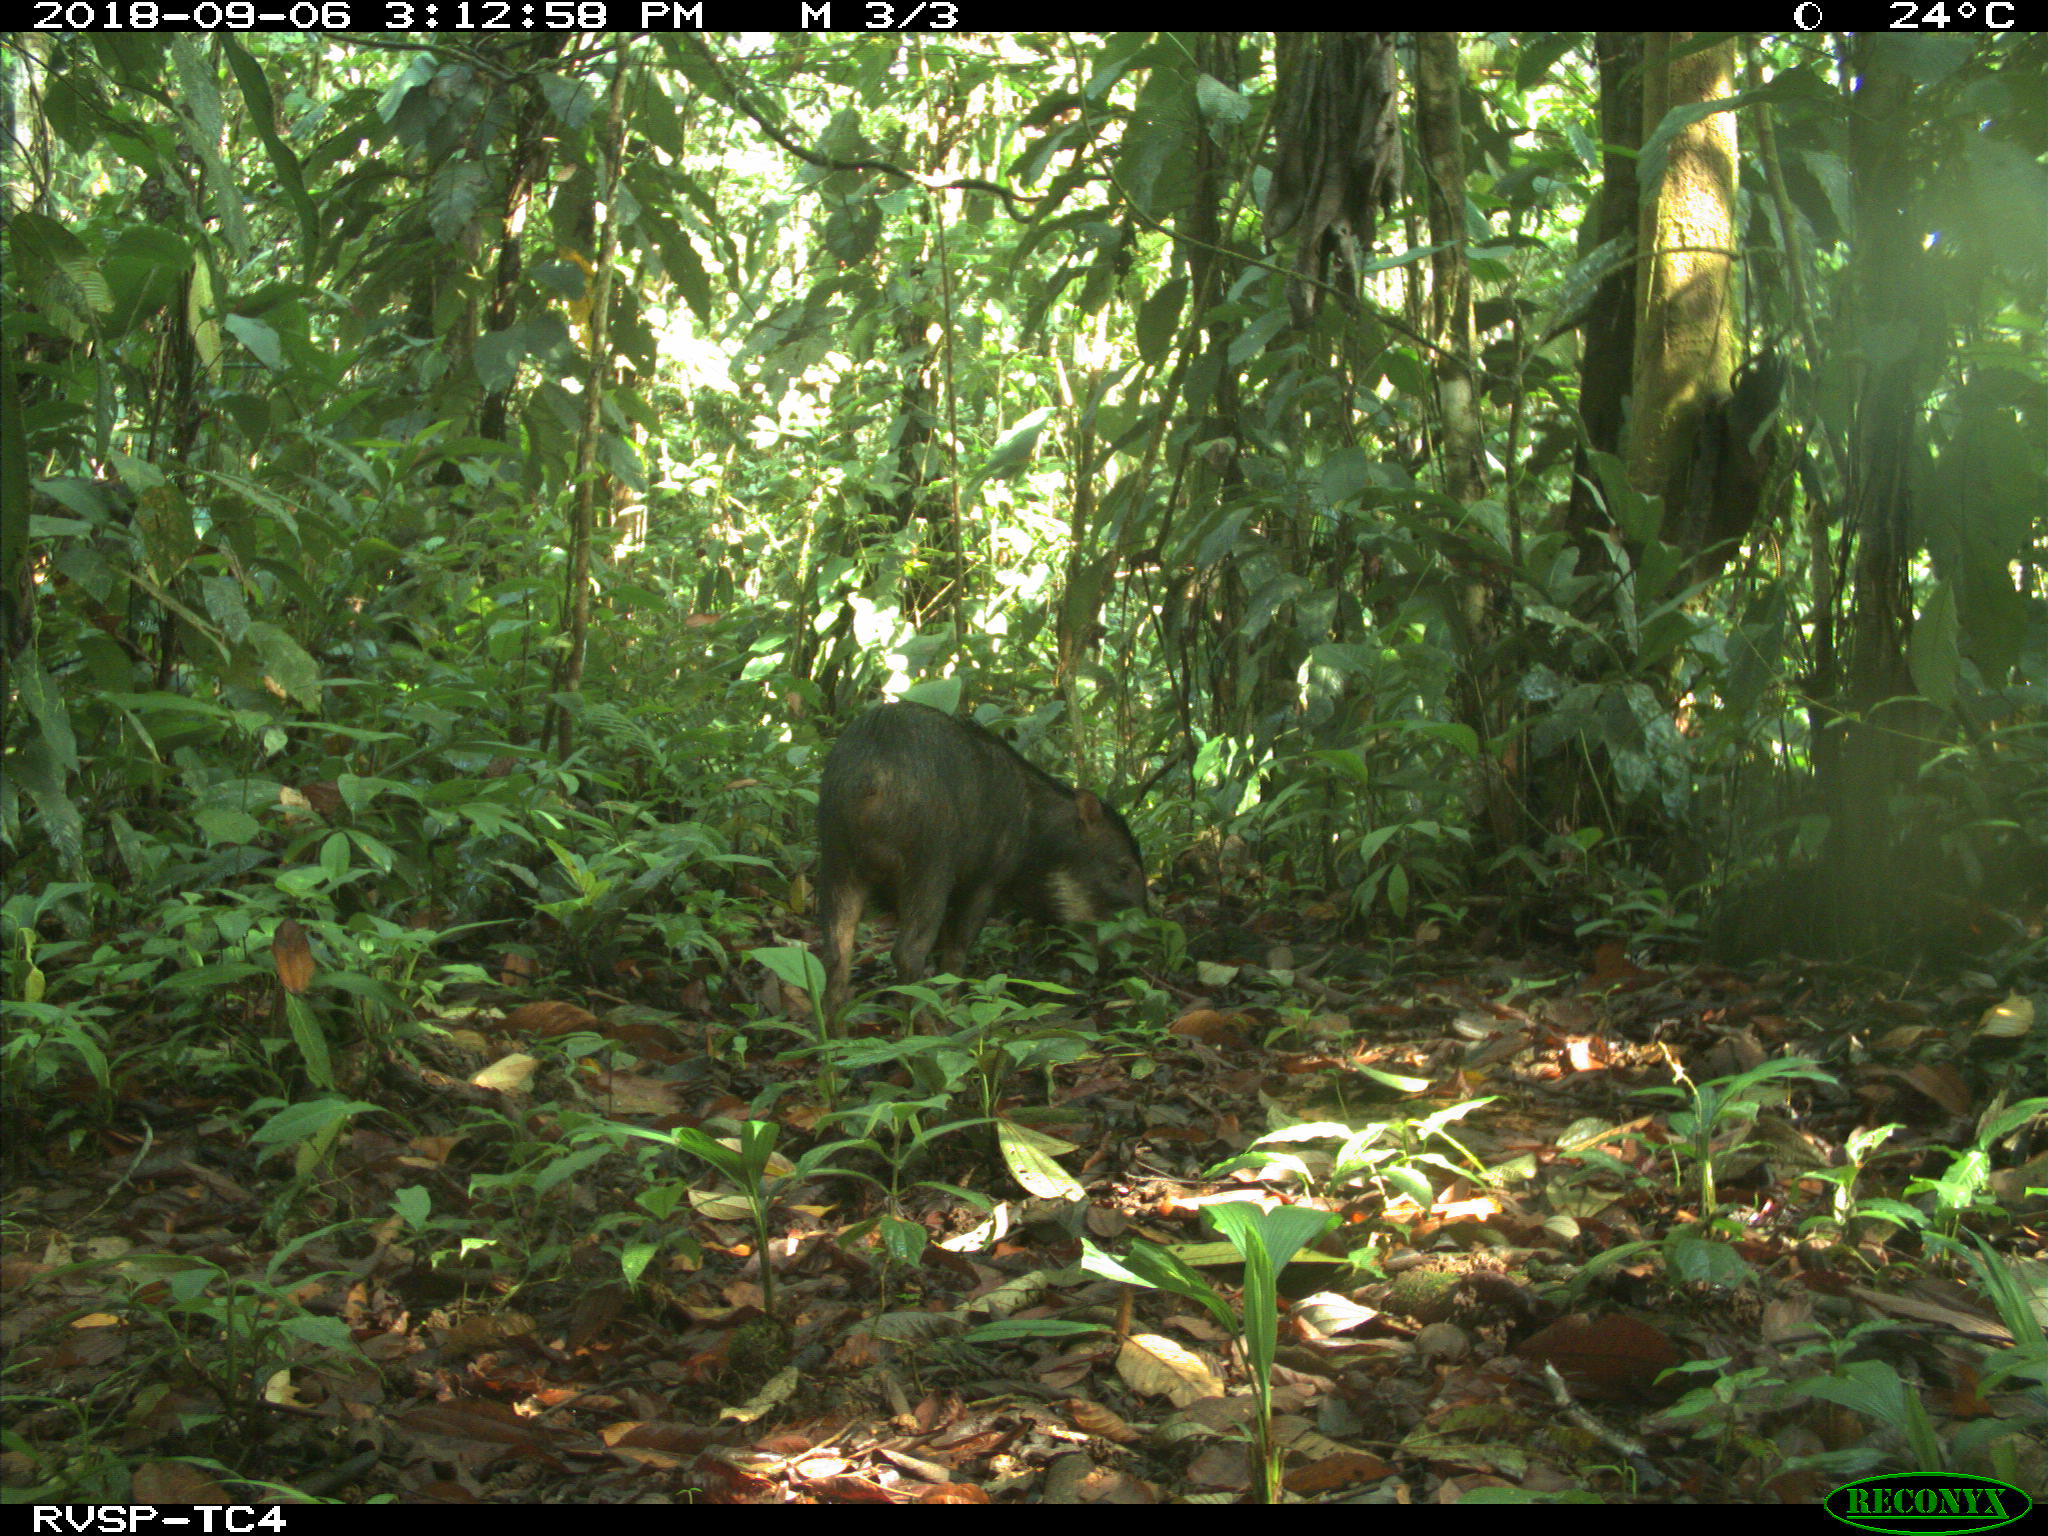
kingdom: Animalia
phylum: Chordata
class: Mammalia
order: Artiodactyla
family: Tayassuidae
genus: Tayassu
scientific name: Tayassu pecari
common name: White-lipped peccary
